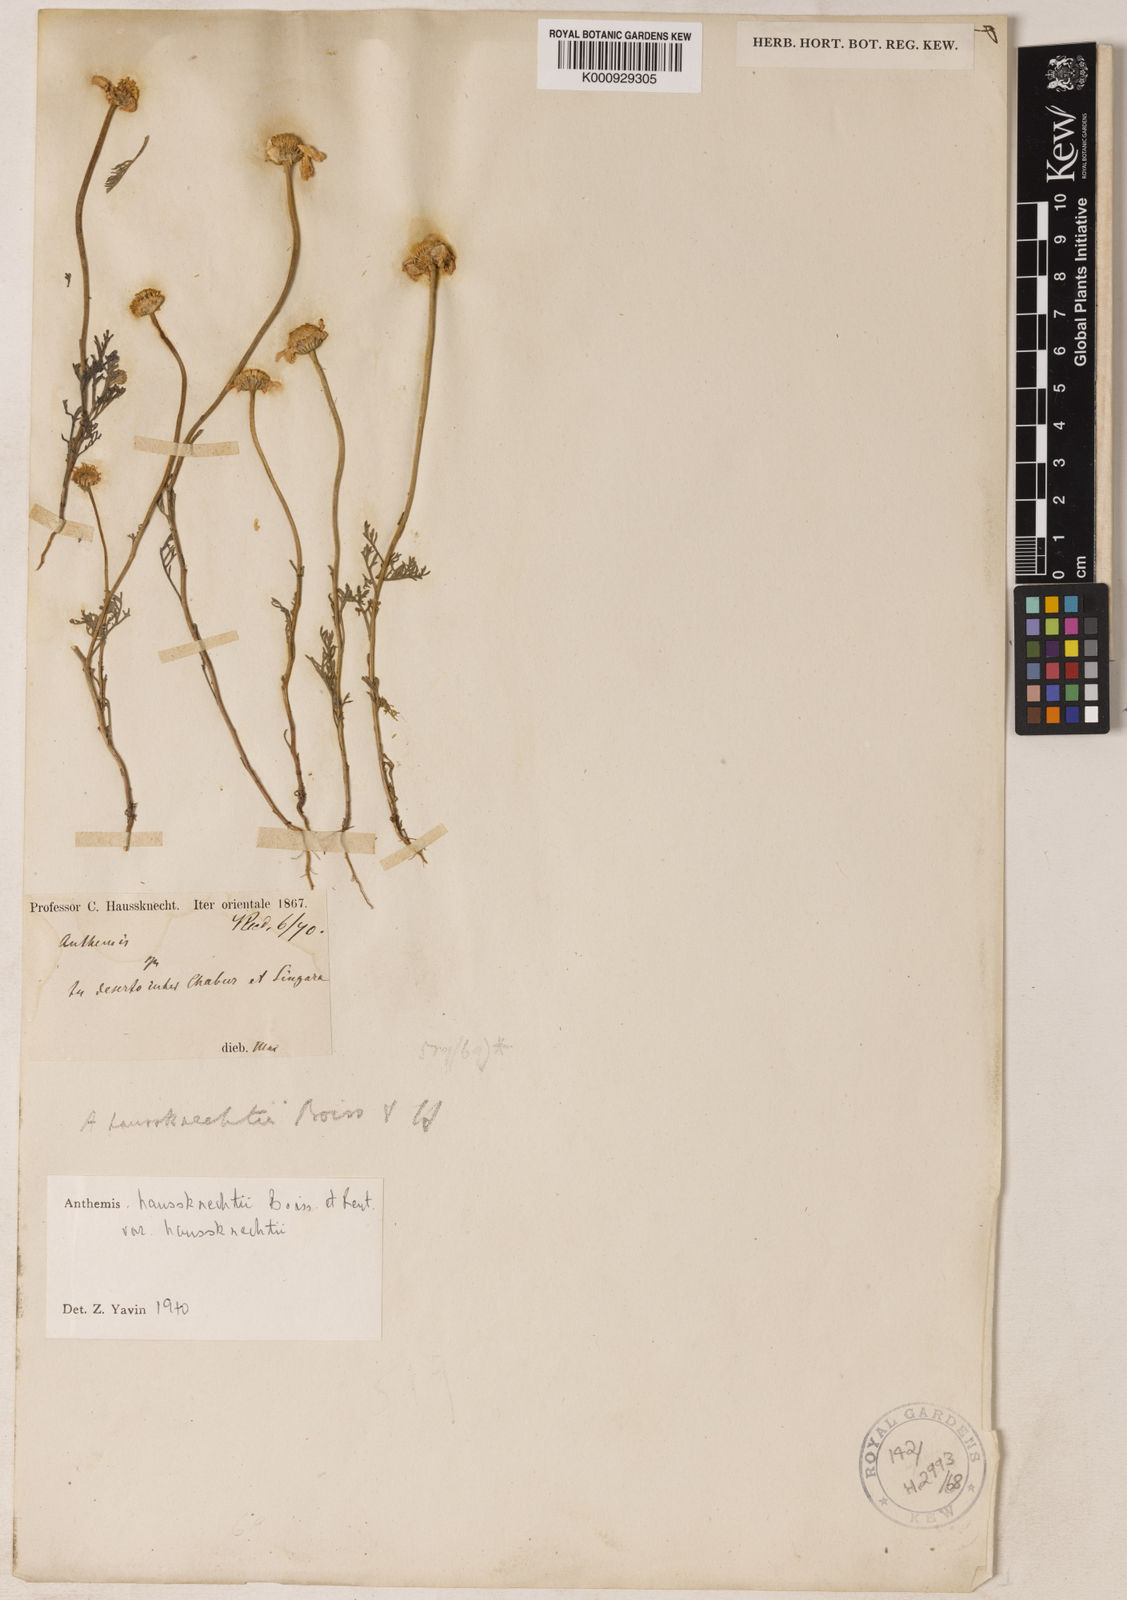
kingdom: Plantae
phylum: Tracheophyta
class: Magnoliopsida
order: Asterales
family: Asteraceae
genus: Anthemis
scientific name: Anthemis haussknechtii
